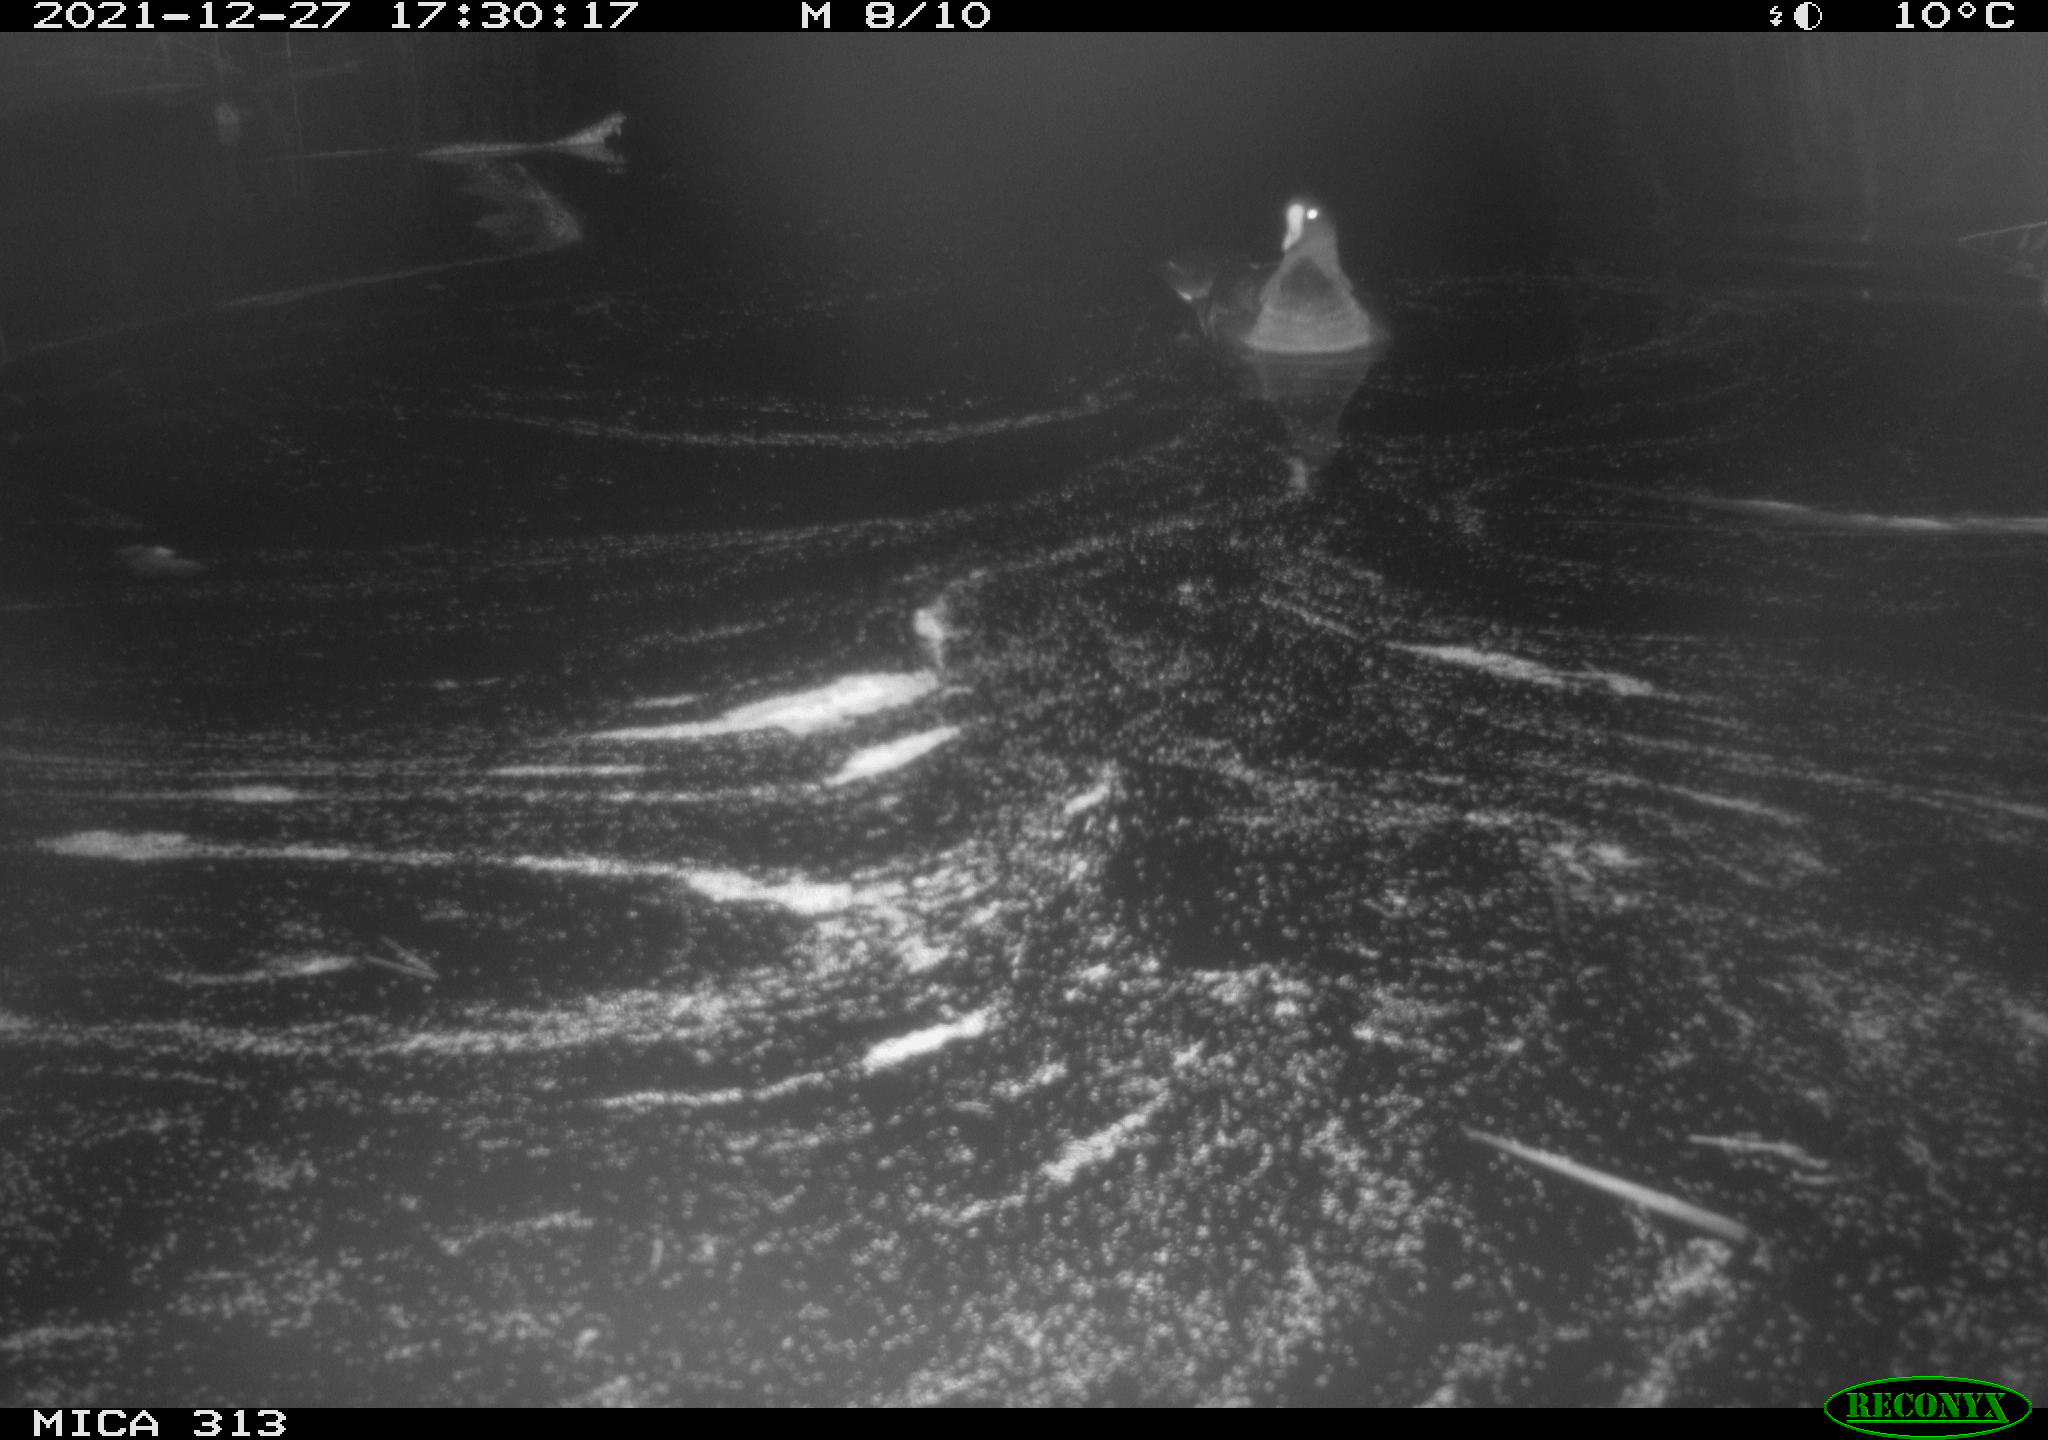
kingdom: Animalia
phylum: Chordata
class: Aves
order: Gruiformes
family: Rallidae
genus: Gallinula
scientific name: Gallinula chloropus
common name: Common moorhen
